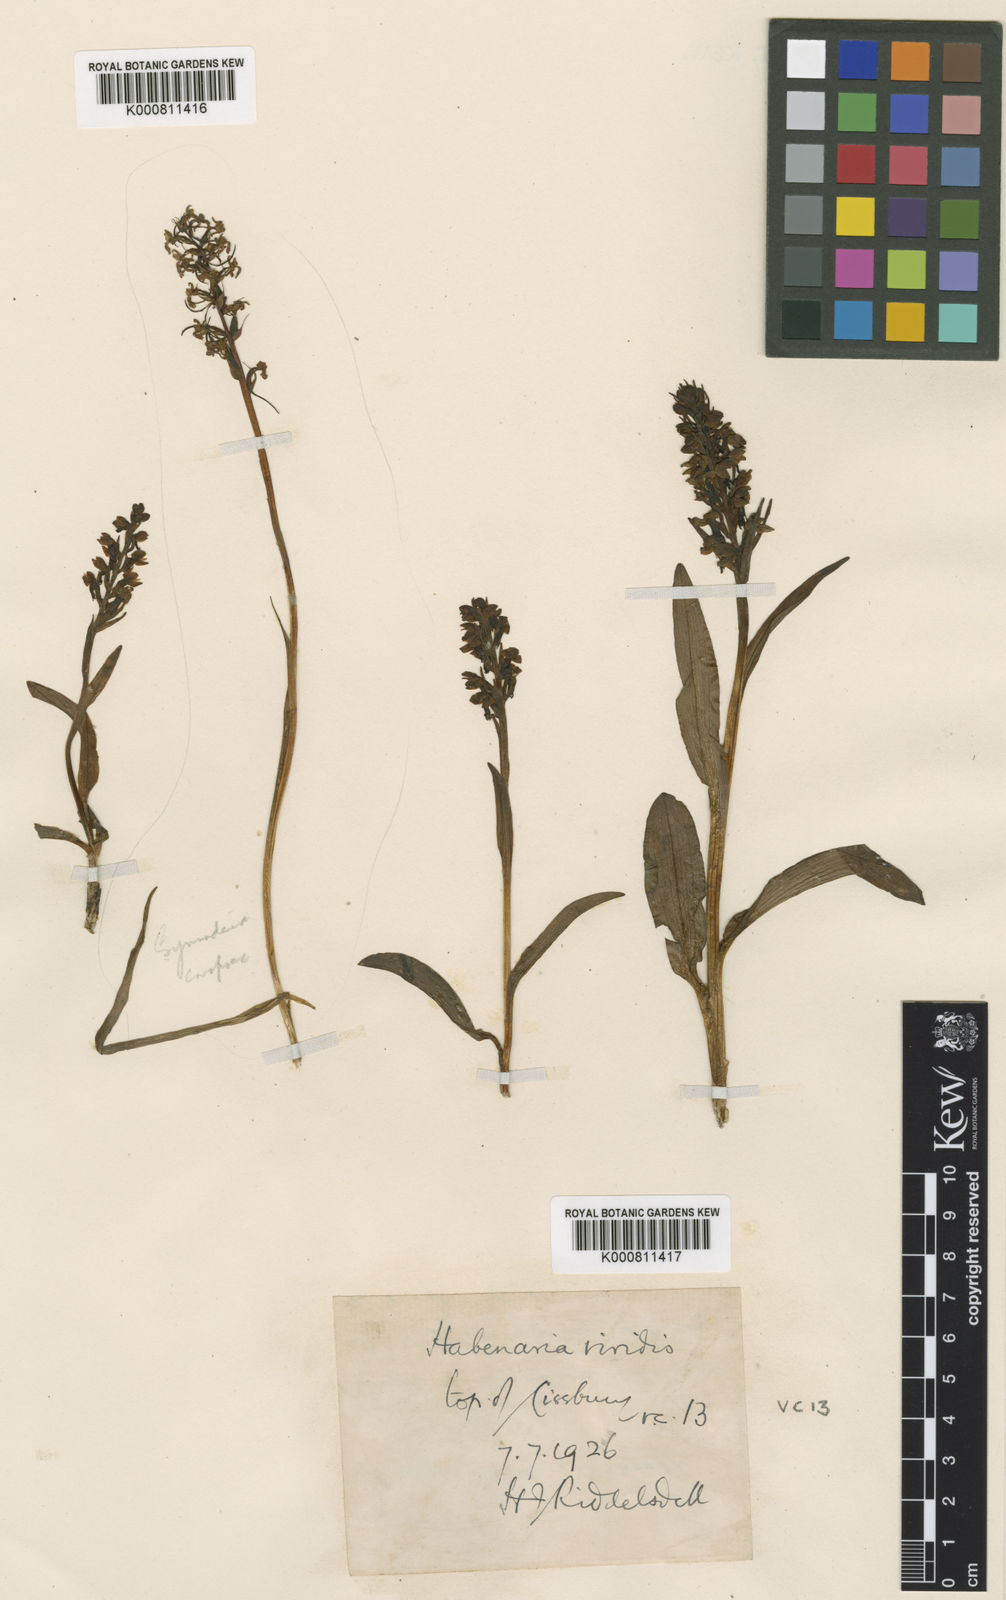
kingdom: Plantae
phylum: Tracheophyta
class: Liliopsida
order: Asparagales
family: Orchidaceae
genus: Dactylorhiza
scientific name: Dactylorhiza viridis
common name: Longbract frog orchid
